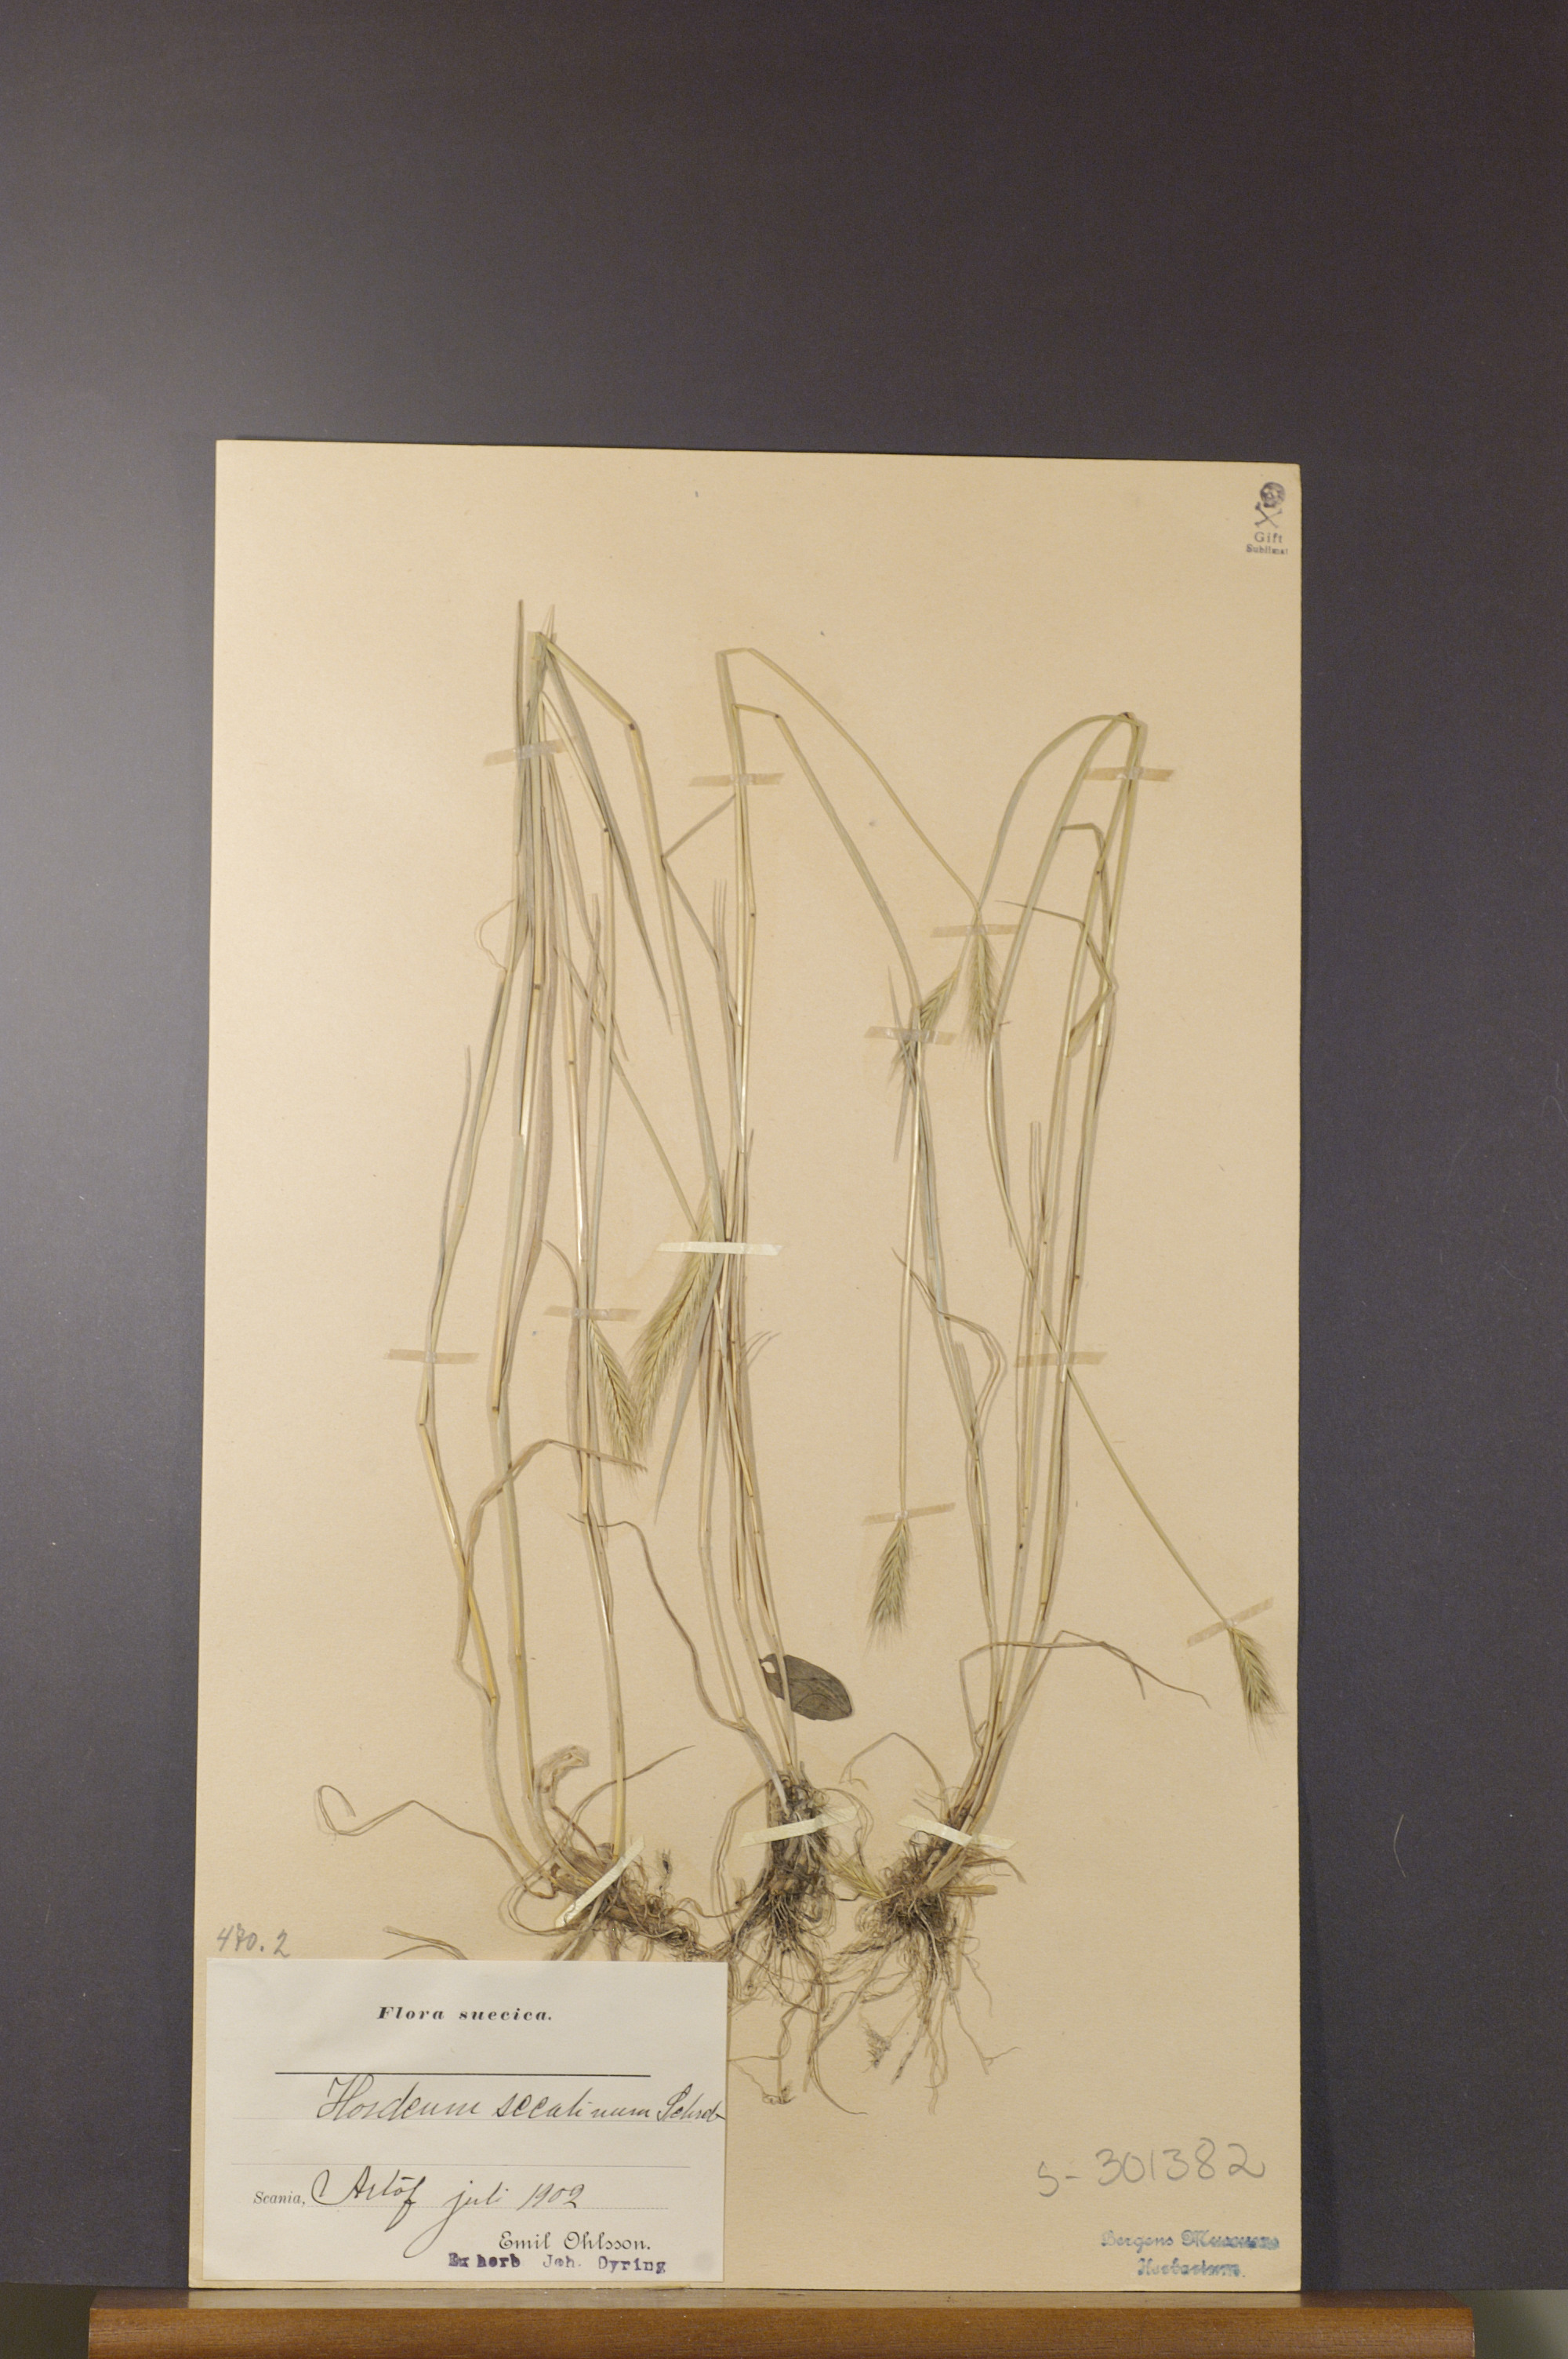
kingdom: Plantae
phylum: Tracheophyta
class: Liliopsida
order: Poales
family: Poaceae
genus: Hordeum
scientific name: Hordeum secalinum
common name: Meadow barley
